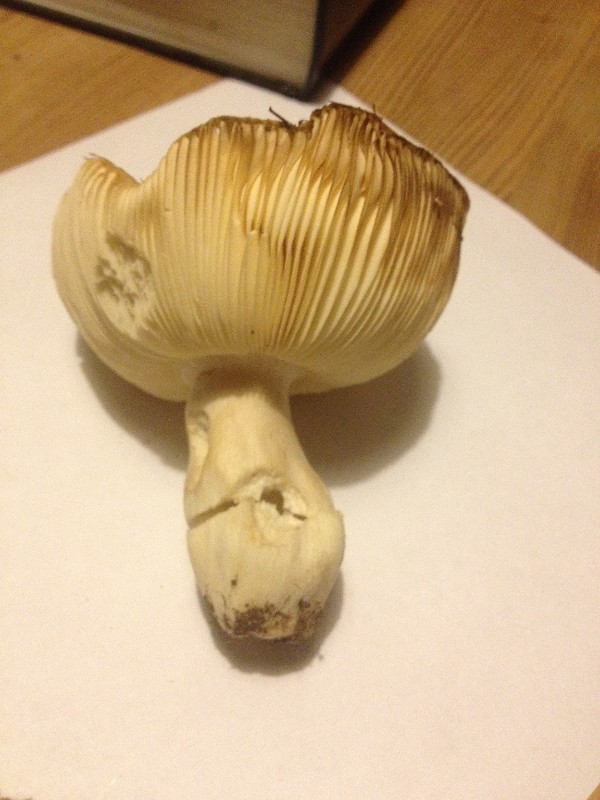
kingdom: Fungi
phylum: Basidiomycota
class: Agaricomycetes
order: Russulales
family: Russulaceae
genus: Russula
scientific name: Russula
